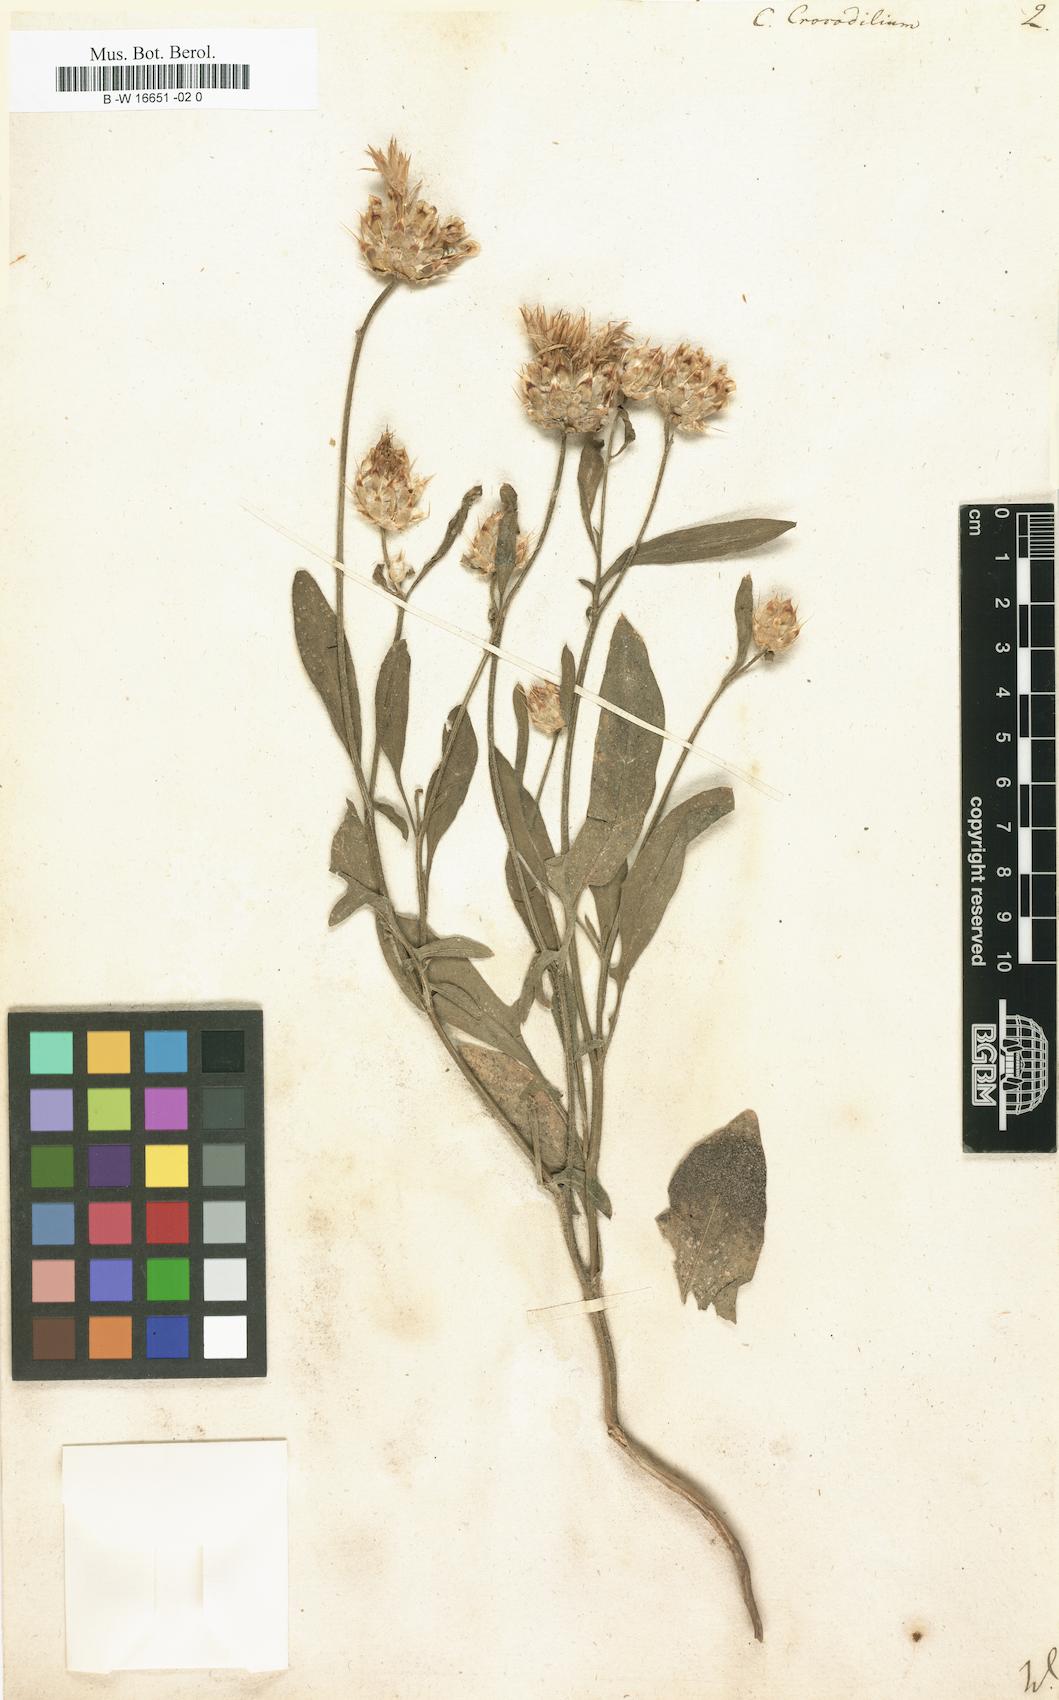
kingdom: Plantae
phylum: Tracheophyta
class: Magnoliopsida
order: Asterales
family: Asteraceae
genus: Crocodilium
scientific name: Crocodilium crocodylium
